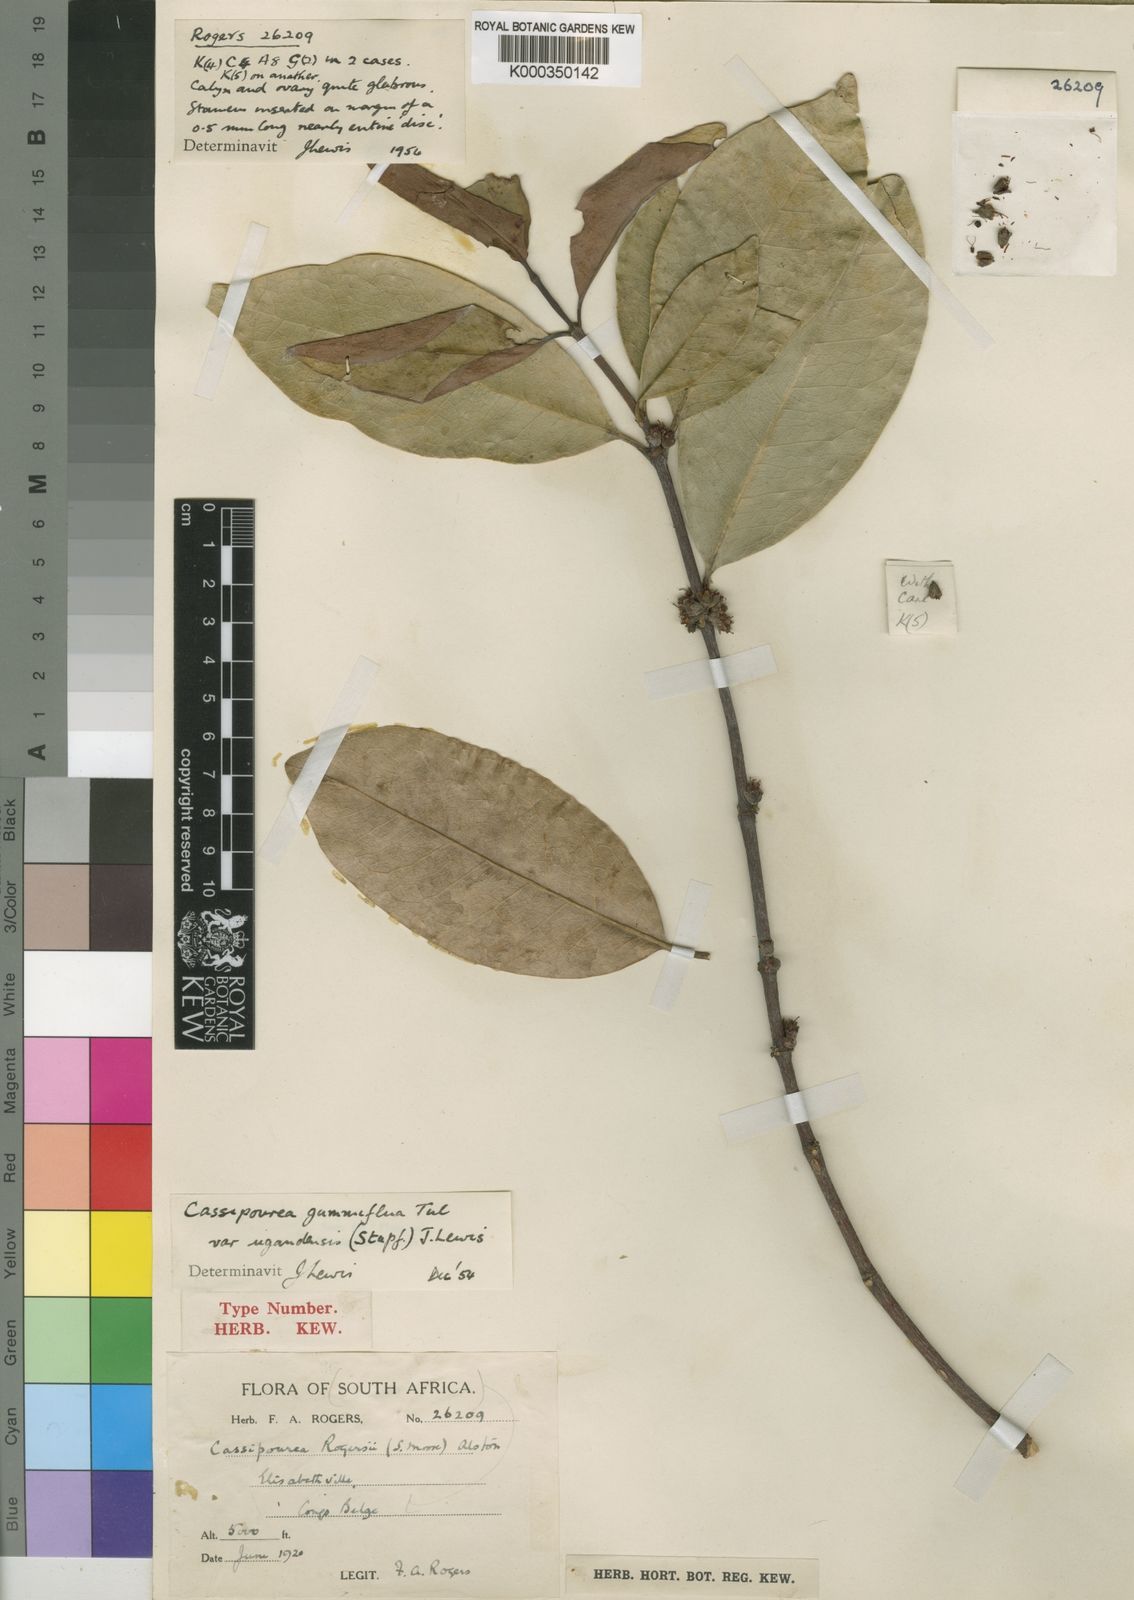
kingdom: Plantae
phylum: Tracheophyta
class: Magnoliopsida
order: Malpighiales
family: Rhizophoraceae
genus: Cassipourea
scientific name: Cassipourea gummiflua
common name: Large-leaved onionwood
